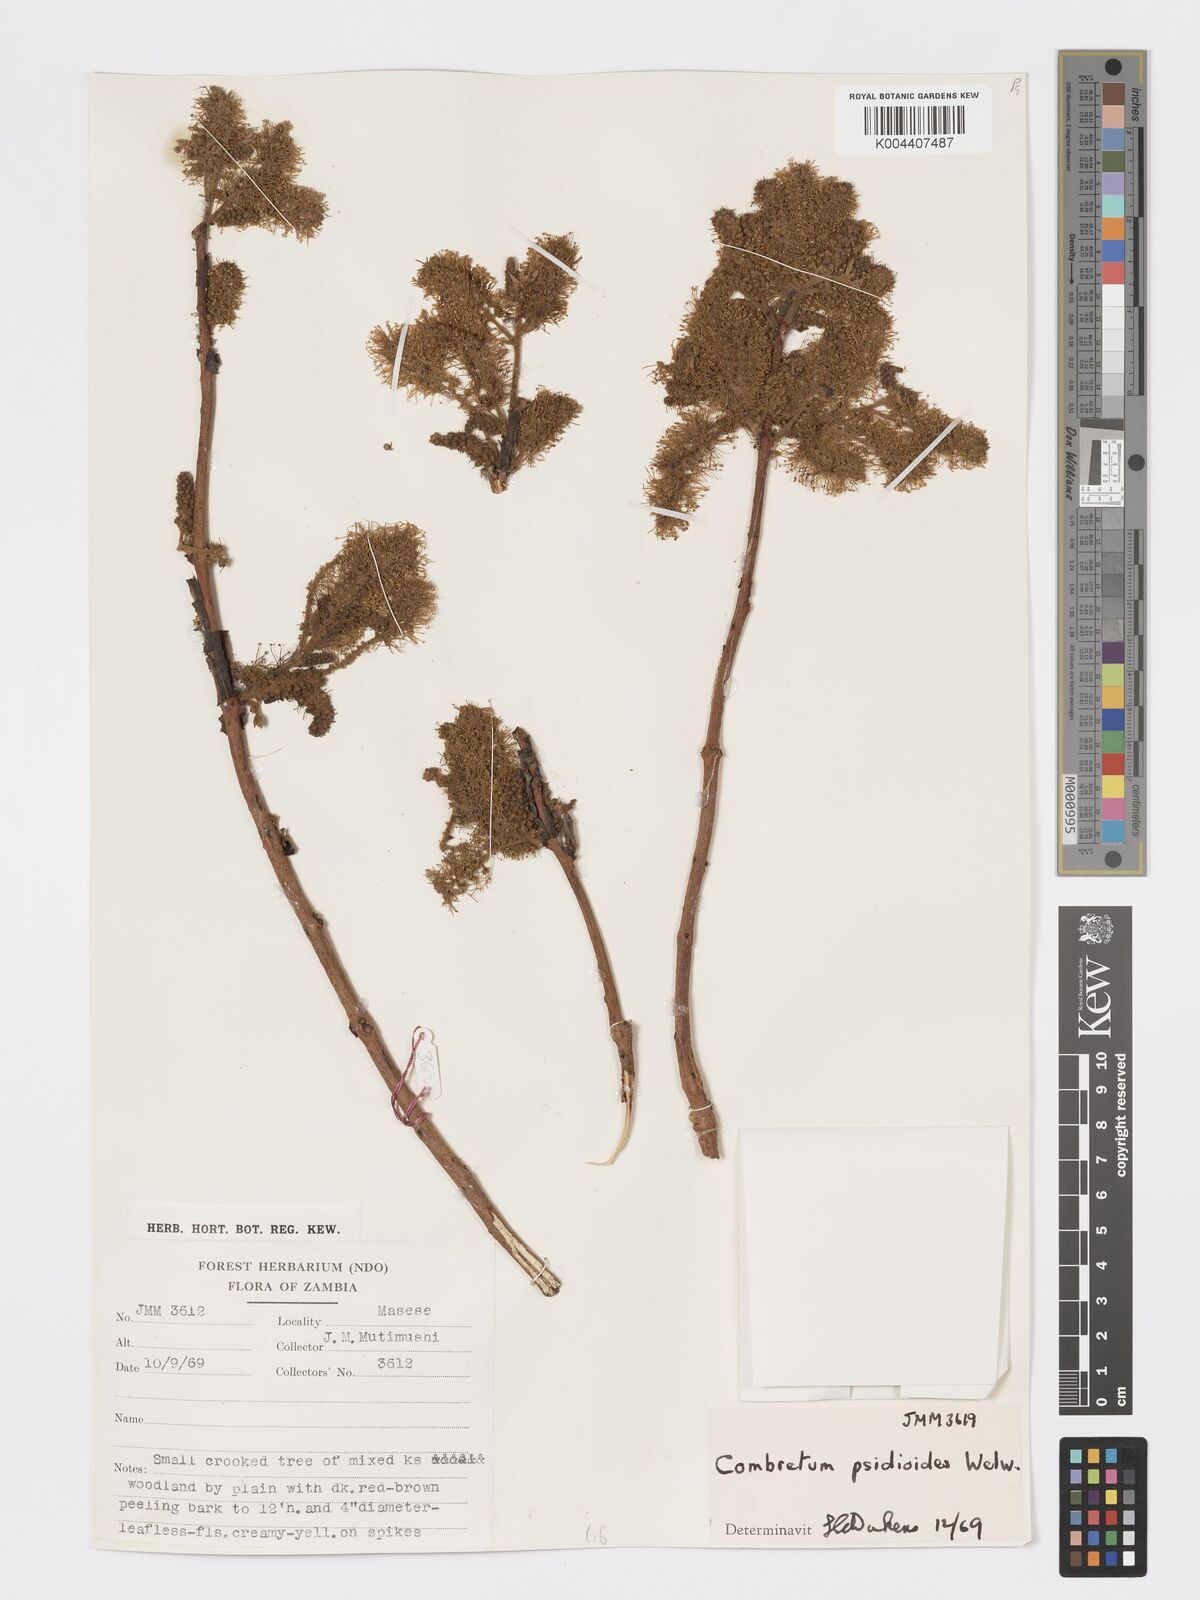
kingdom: Plantae
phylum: Tracheophyta
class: Magnoliopsida
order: Myrtales
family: Combretaceae
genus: Combretum
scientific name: Combretum psidioides
